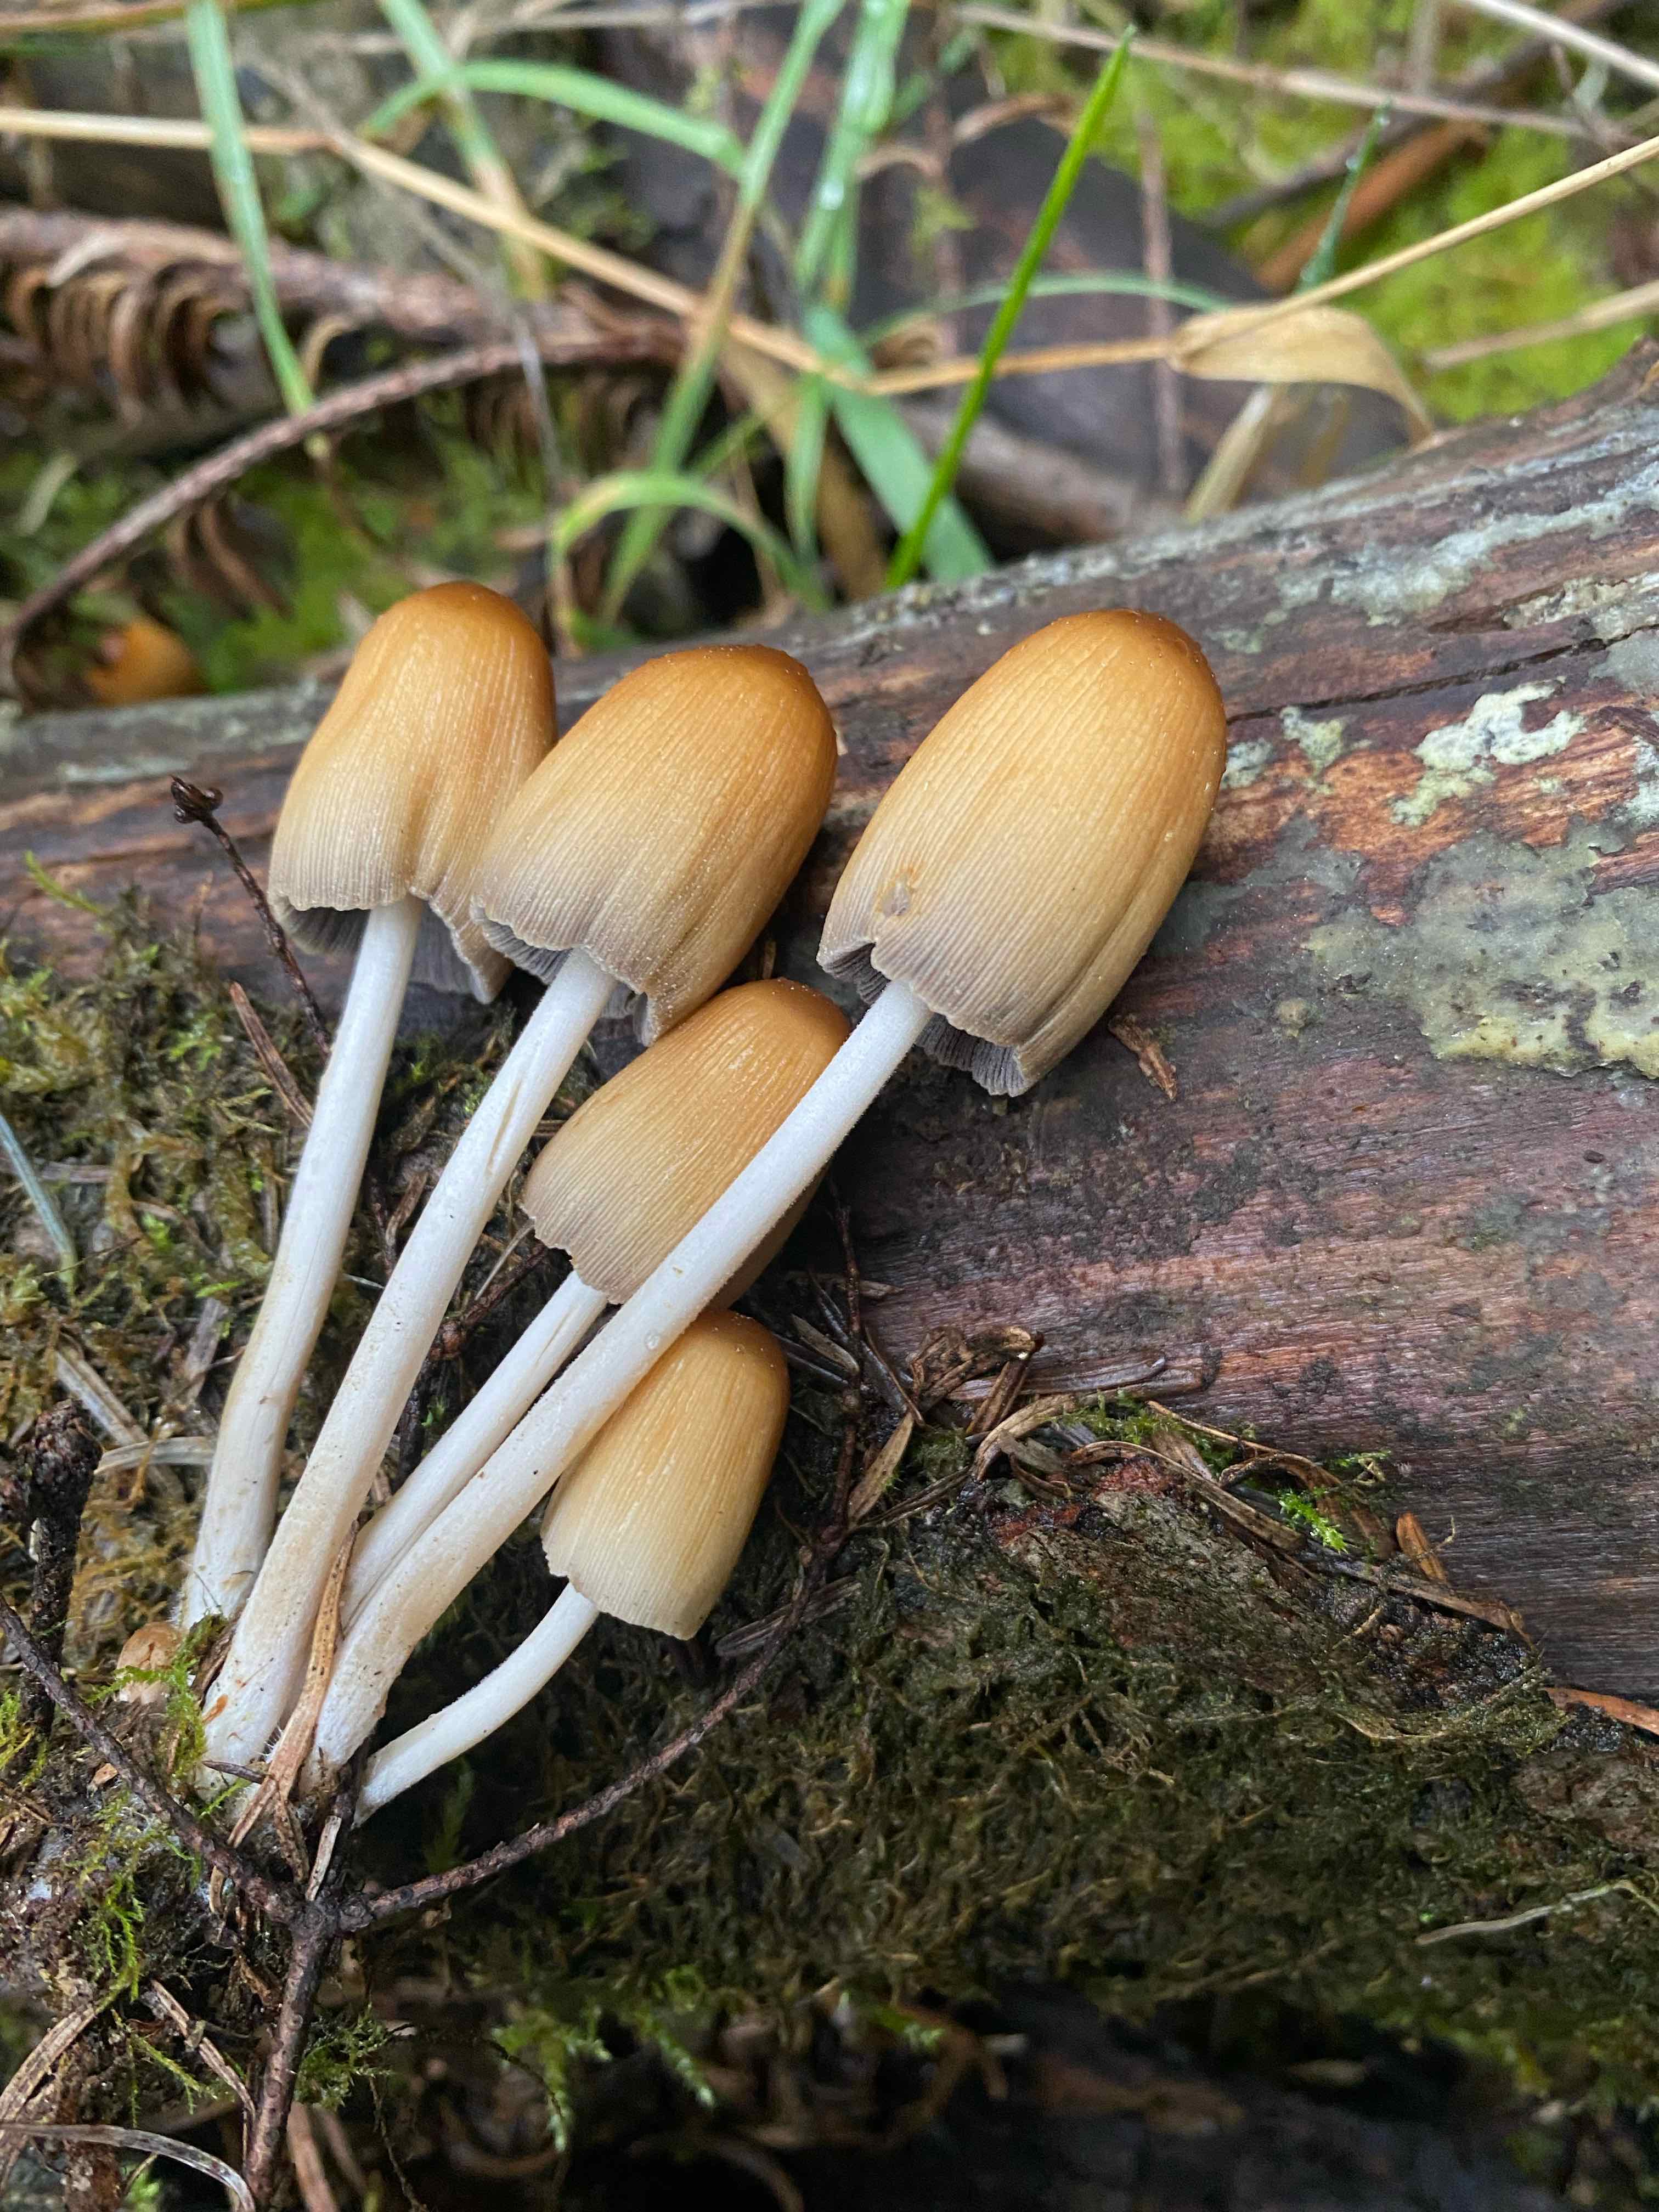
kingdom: Fungi
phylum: Basidiomycota
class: Agaricomycetes
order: Agaricales
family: Psathyrellaceae
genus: Coprinellus
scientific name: Coprinellus micaceus
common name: glimmer-blækhat
